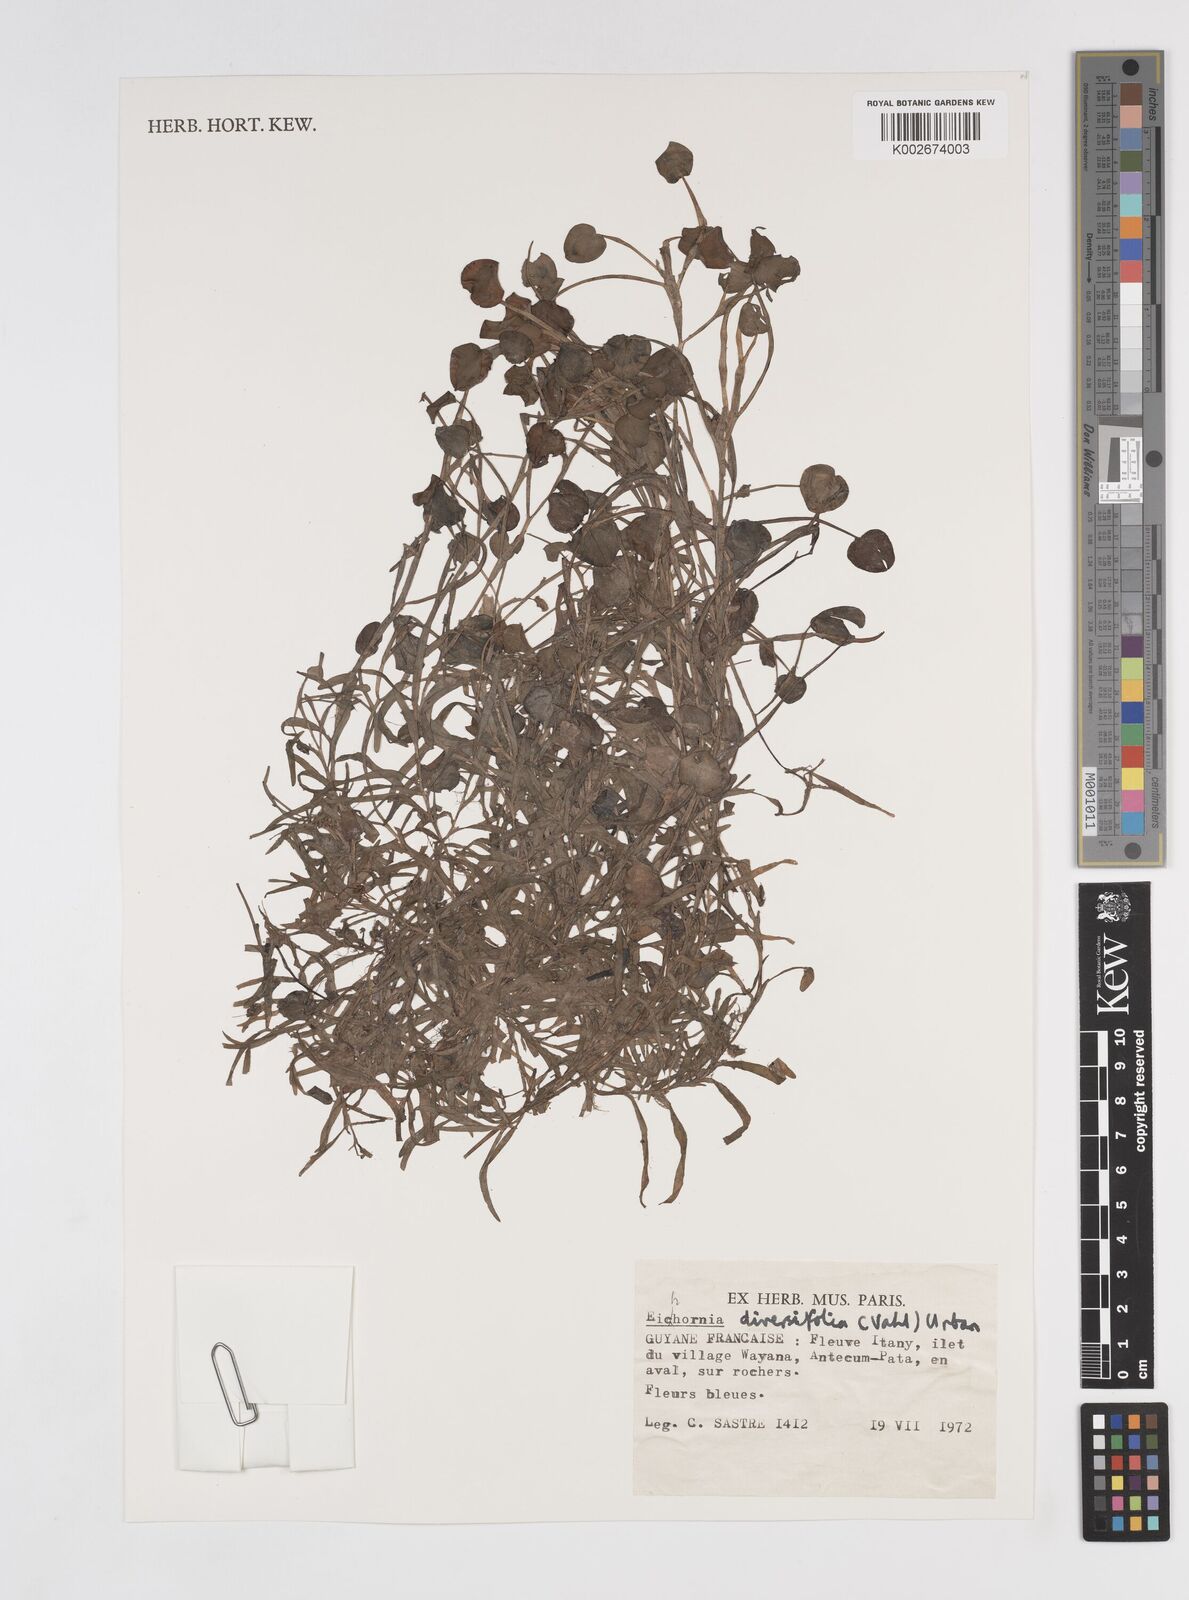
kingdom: Plantae
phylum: Tracheophyta
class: Liliopsida
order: Commelinales
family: Pontederiaceae
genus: Pontederia
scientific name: Pontederia diversifolia
